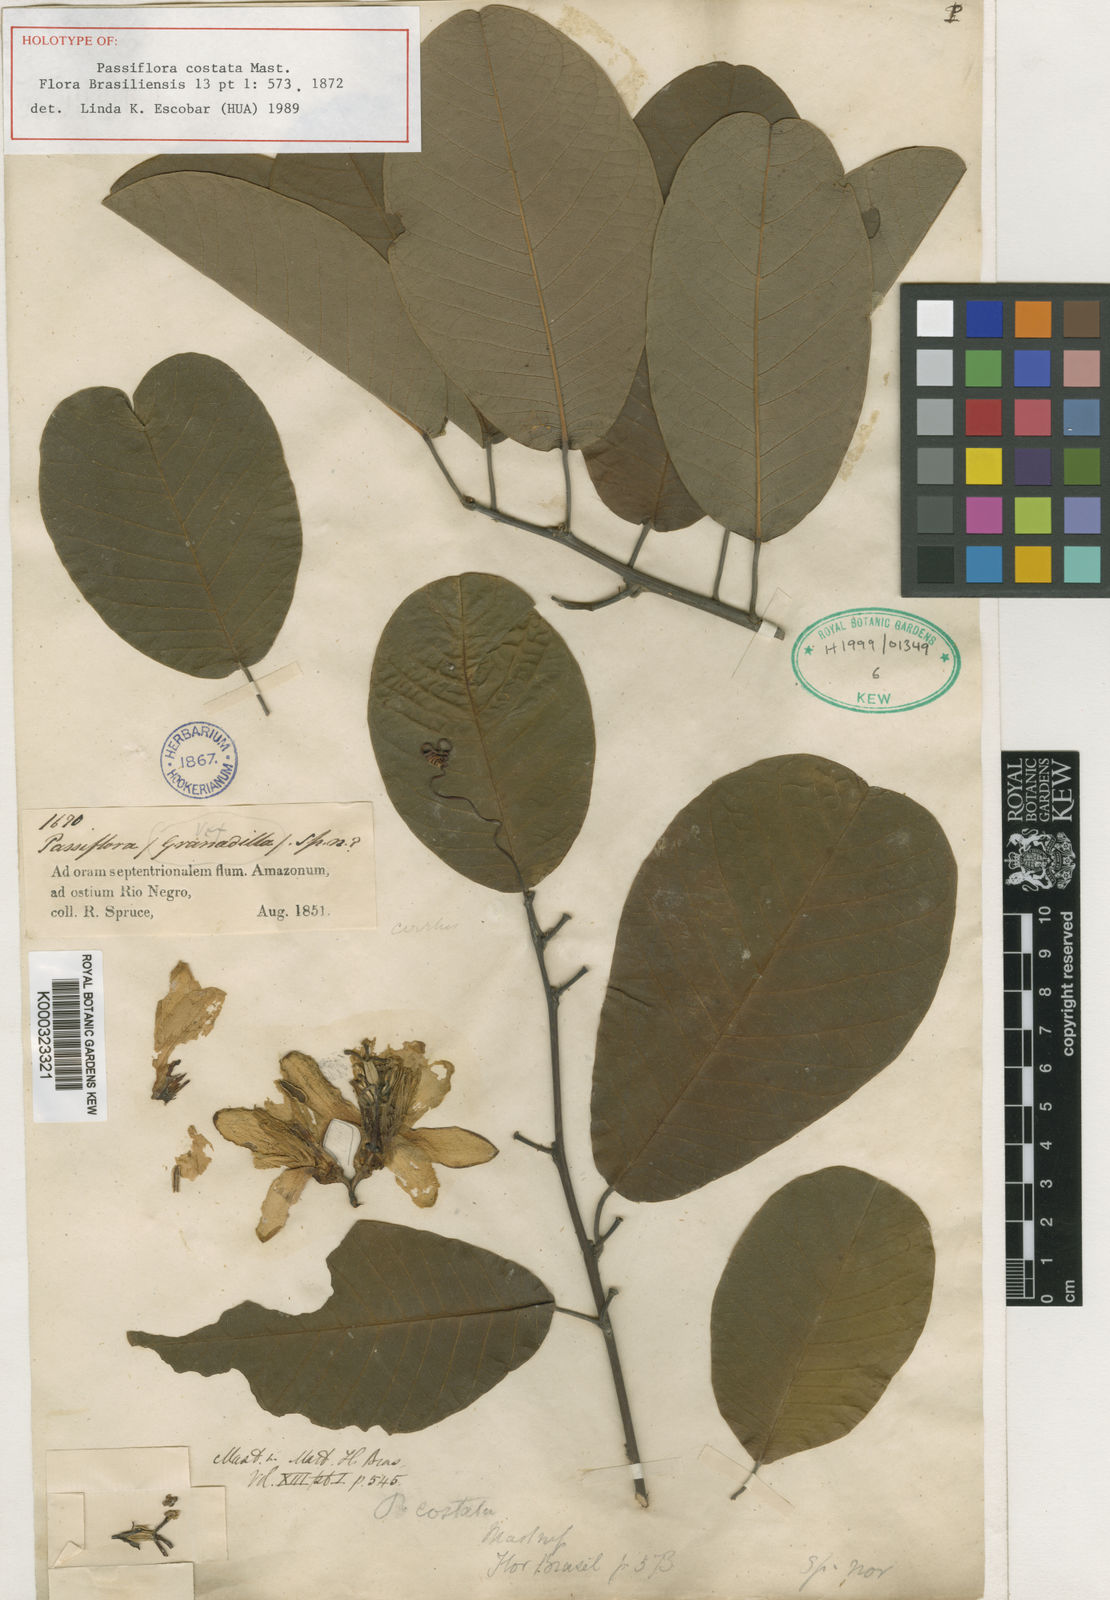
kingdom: Plantae
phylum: Tracheophyta
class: Magnoliopsida
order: Malpighiales
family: Passifloraceae
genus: Passiflora
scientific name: Passiflora costata
